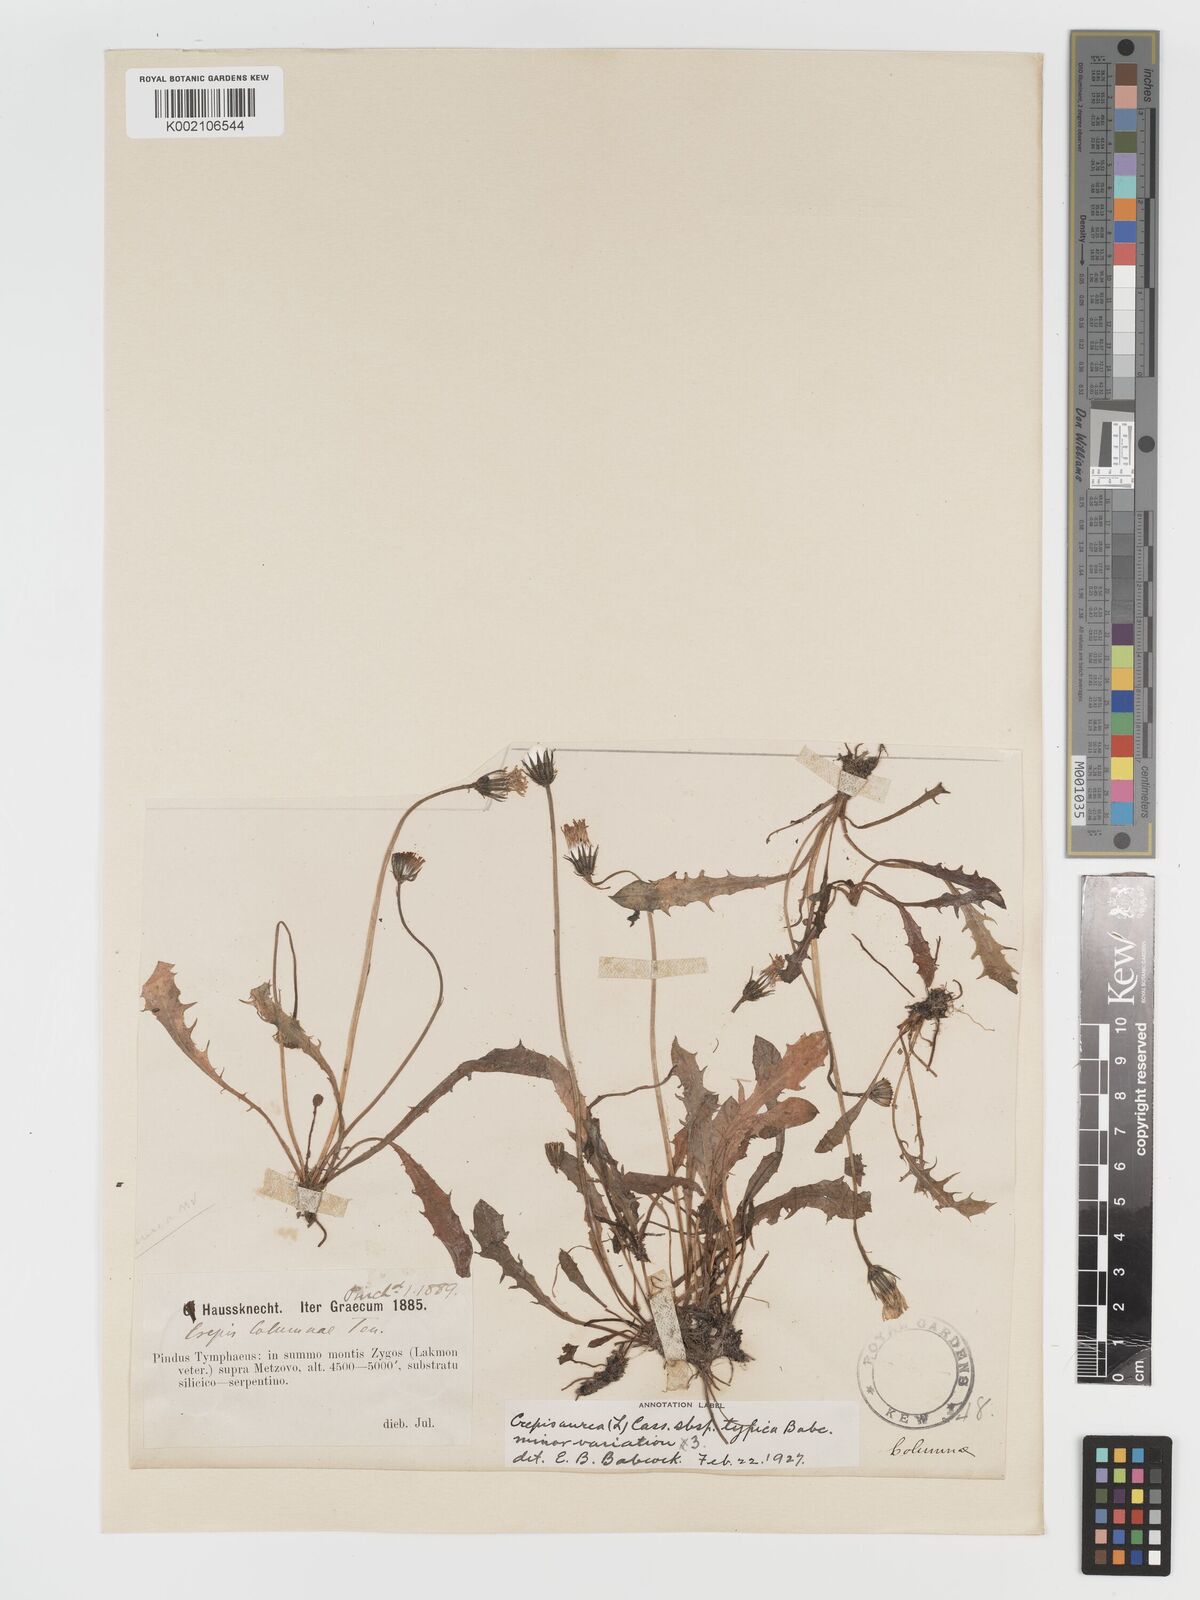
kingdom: Plantae
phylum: Tracheophyta
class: Magnoliopsida
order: Asterales
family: Asteraceae
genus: Crepis
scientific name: Crepis aurea
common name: Golden hawk's-beard
